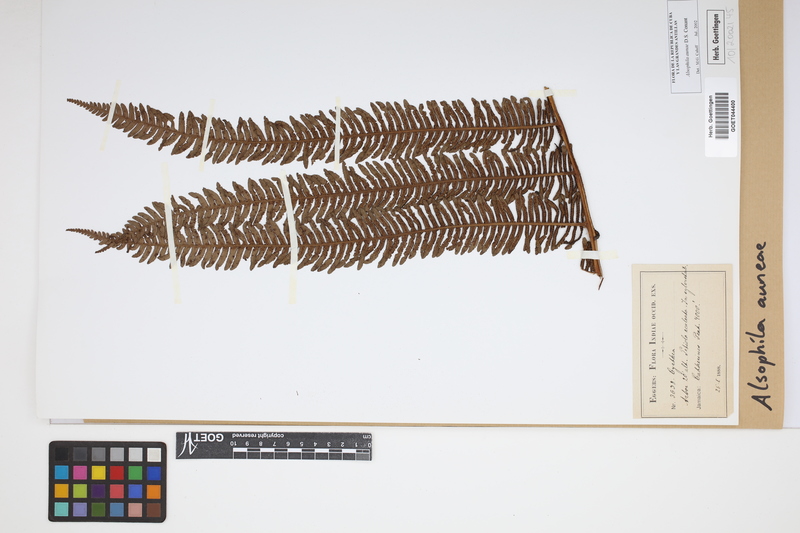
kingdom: Plantae
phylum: Tracheophyta
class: Polypodiopsida
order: Cyatheales
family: Cyatheaceae
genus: Alsophila
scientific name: Alsophila auneae
